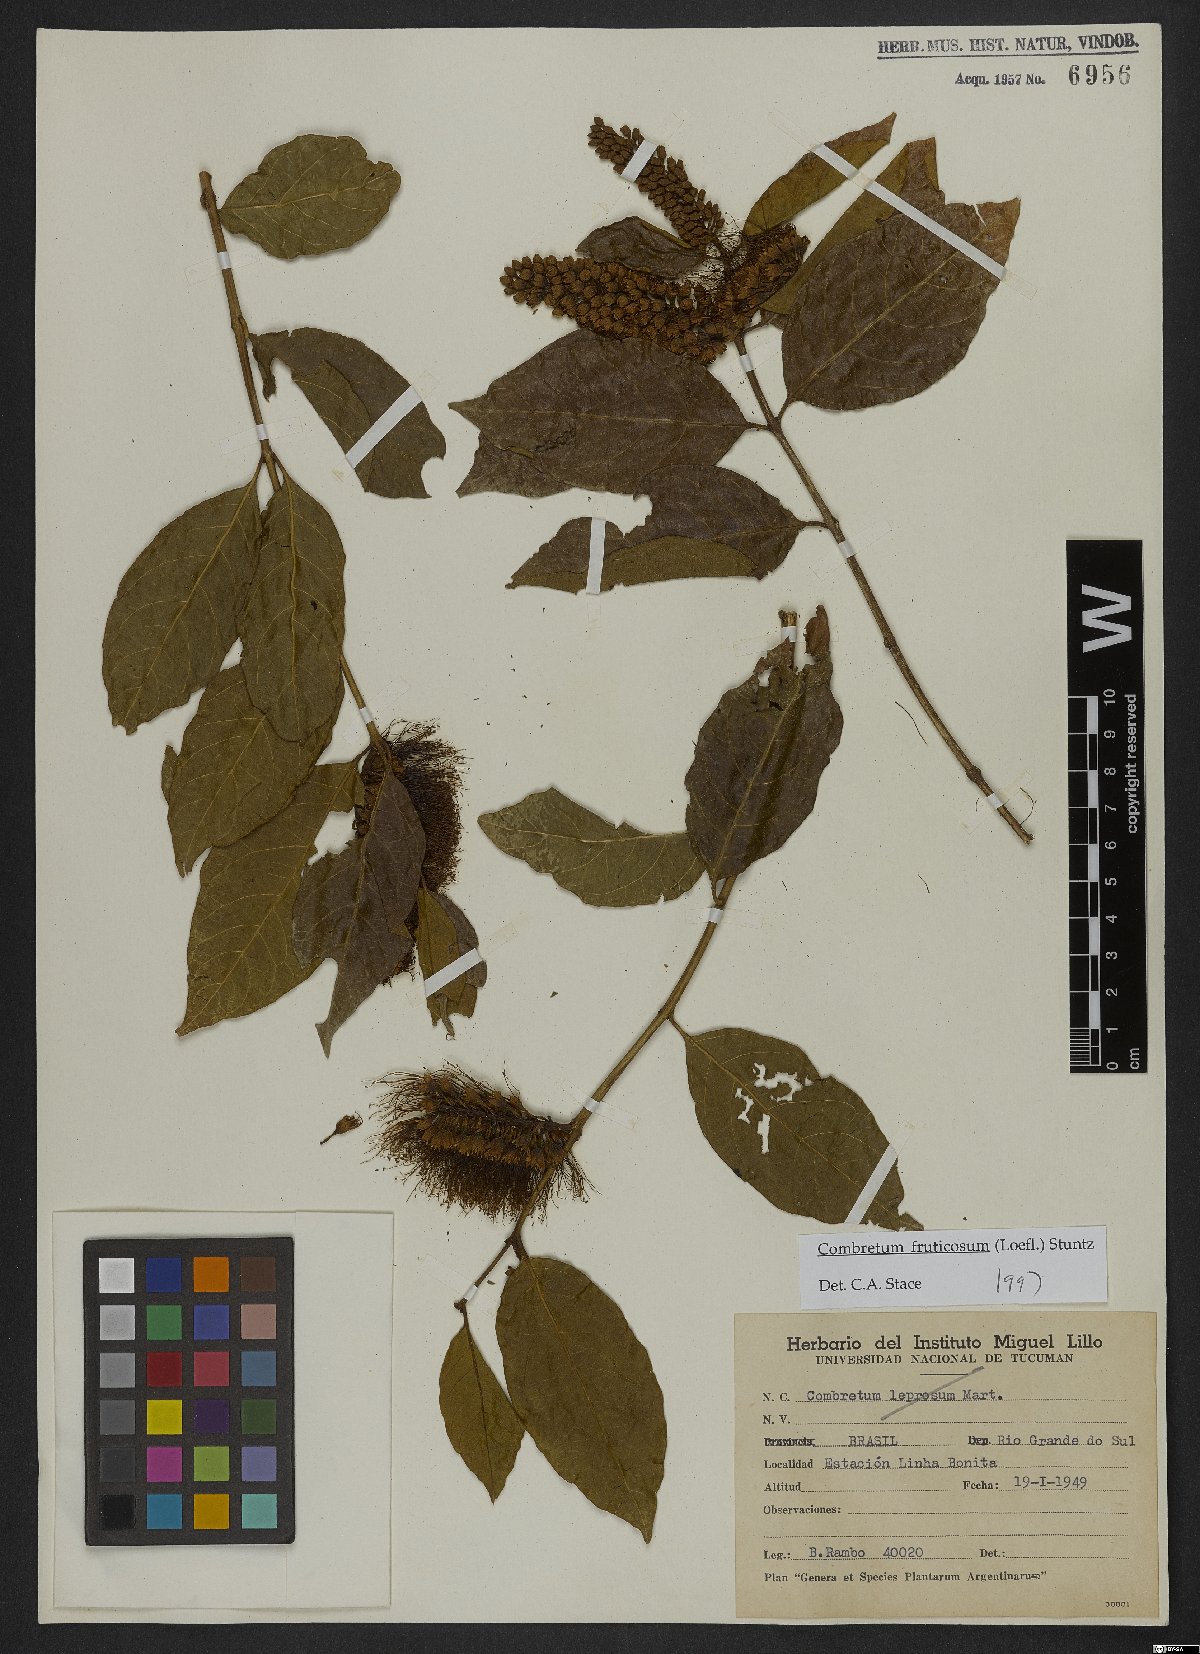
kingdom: Plantae
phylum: Tracheophyta
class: Magnoliopsida
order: Myrtales
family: Combretaceae
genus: Combretum
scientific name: Combretum fruticosum
